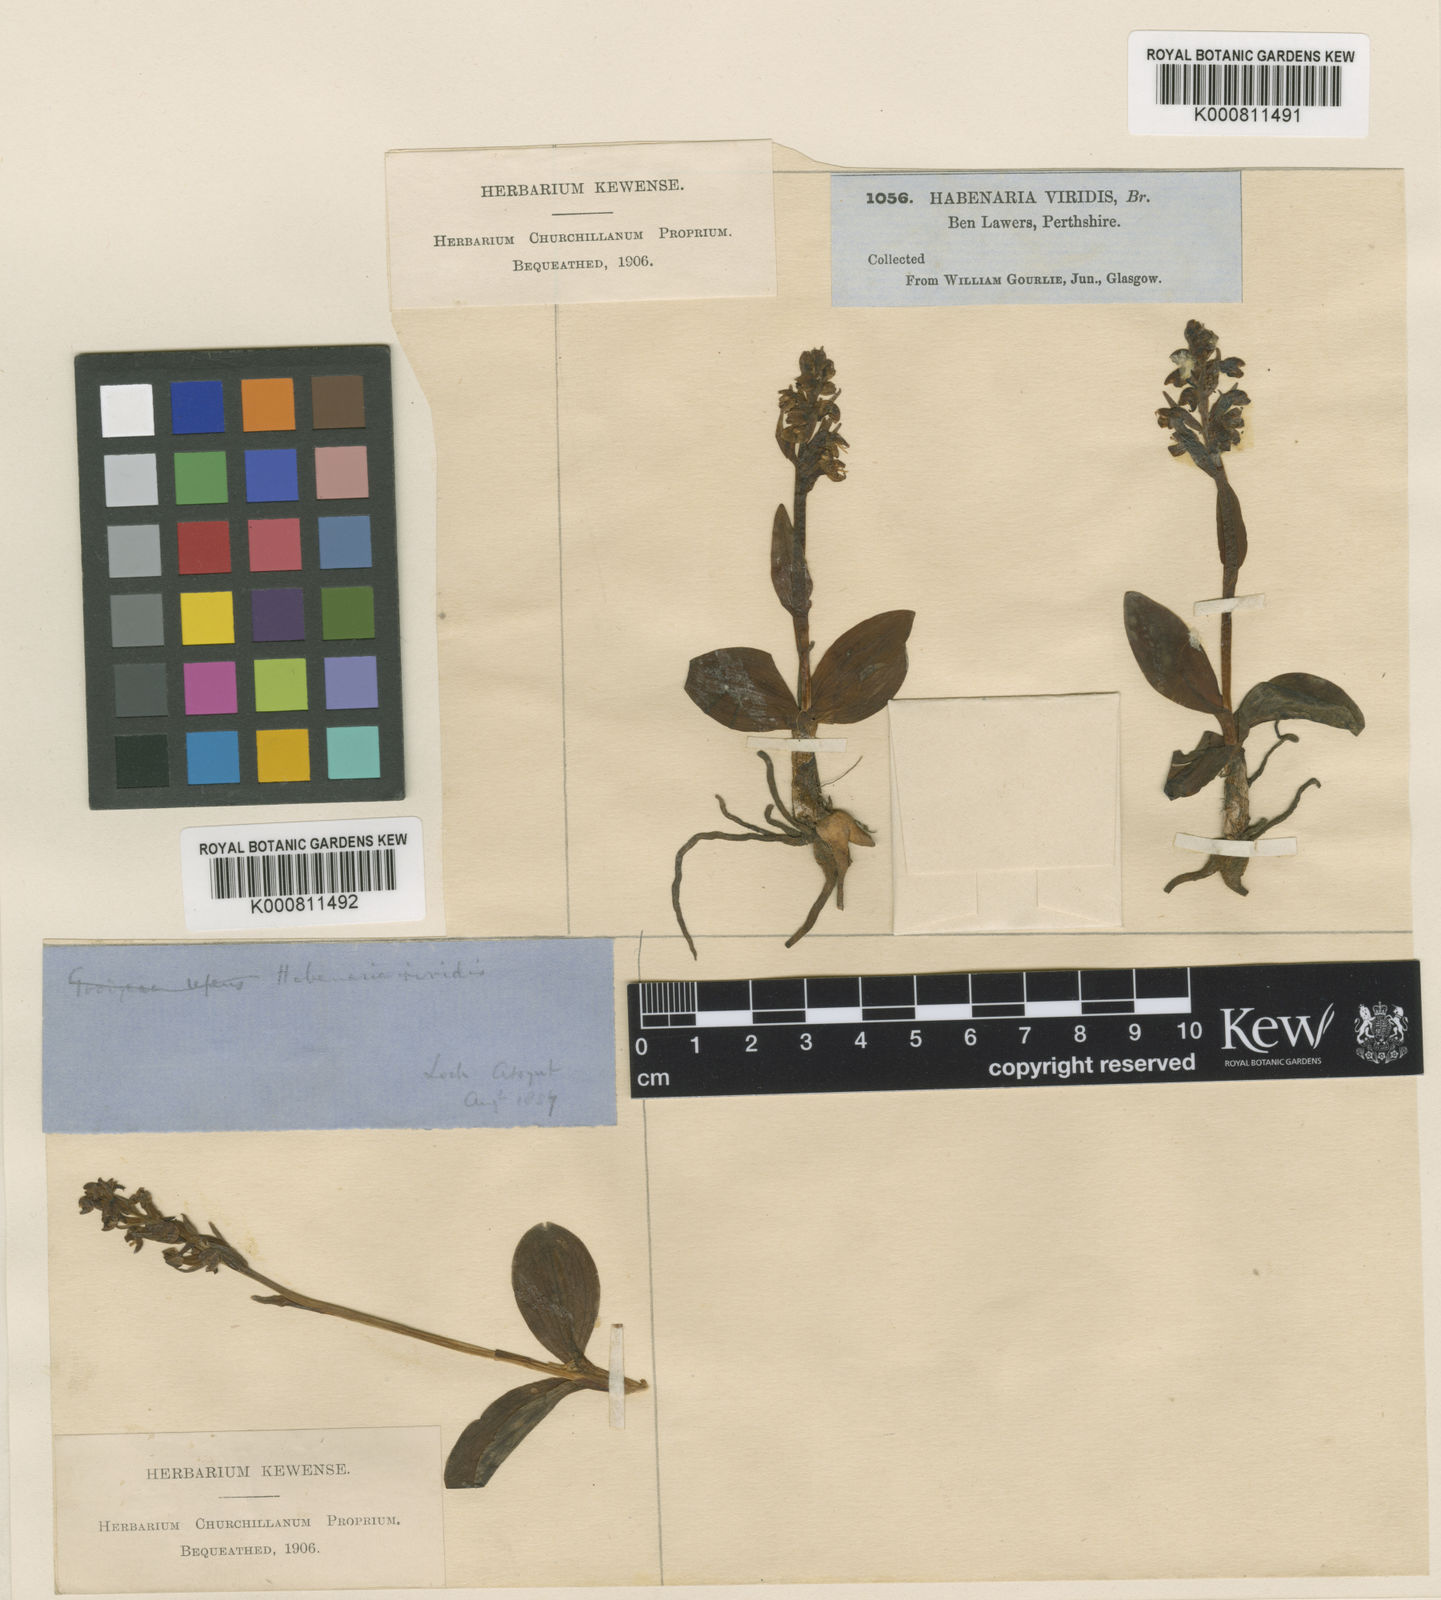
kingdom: Plantae
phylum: Tracheophyta
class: Liliopsida
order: Asparagales
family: Orchidaceae
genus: Dactylorhiza
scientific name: Dactylorhiza viridis
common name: Longbract frog orchid
